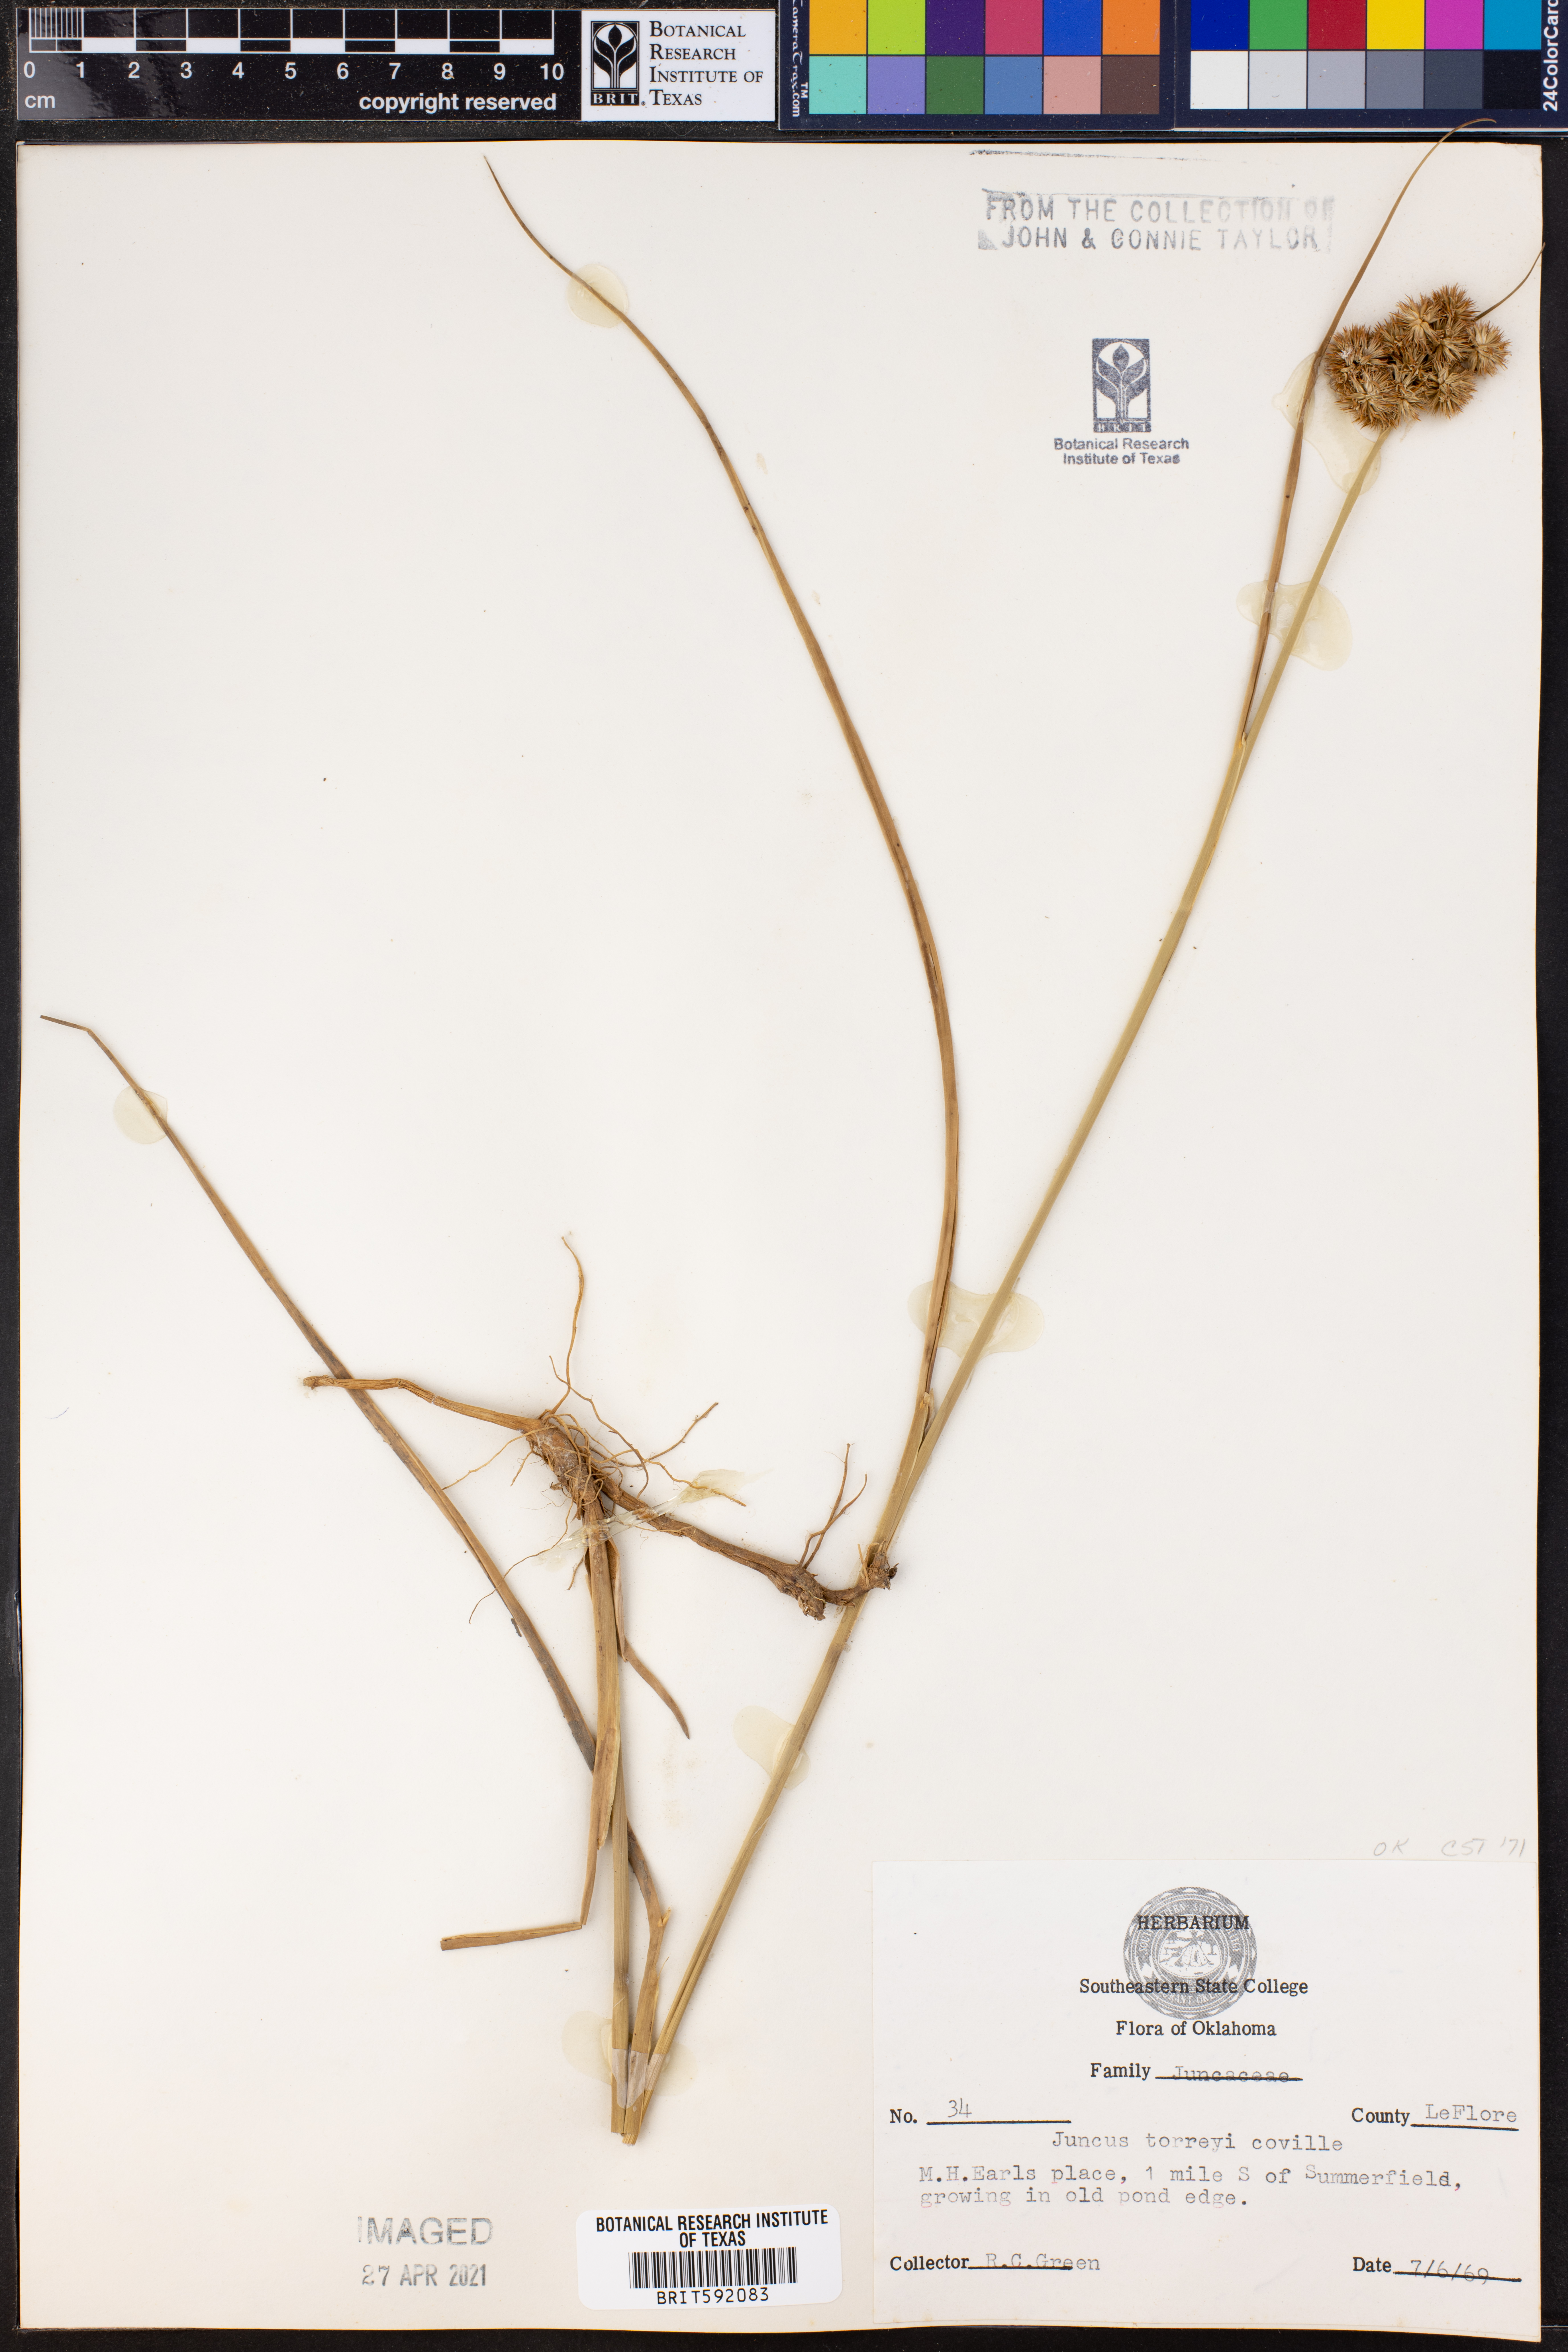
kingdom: Plantae
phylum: Tracheophyta
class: Liliopsida
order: Poales
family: Juncaceae
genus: Juncus
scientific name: Juncus torreyi
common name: Torrey's rush
